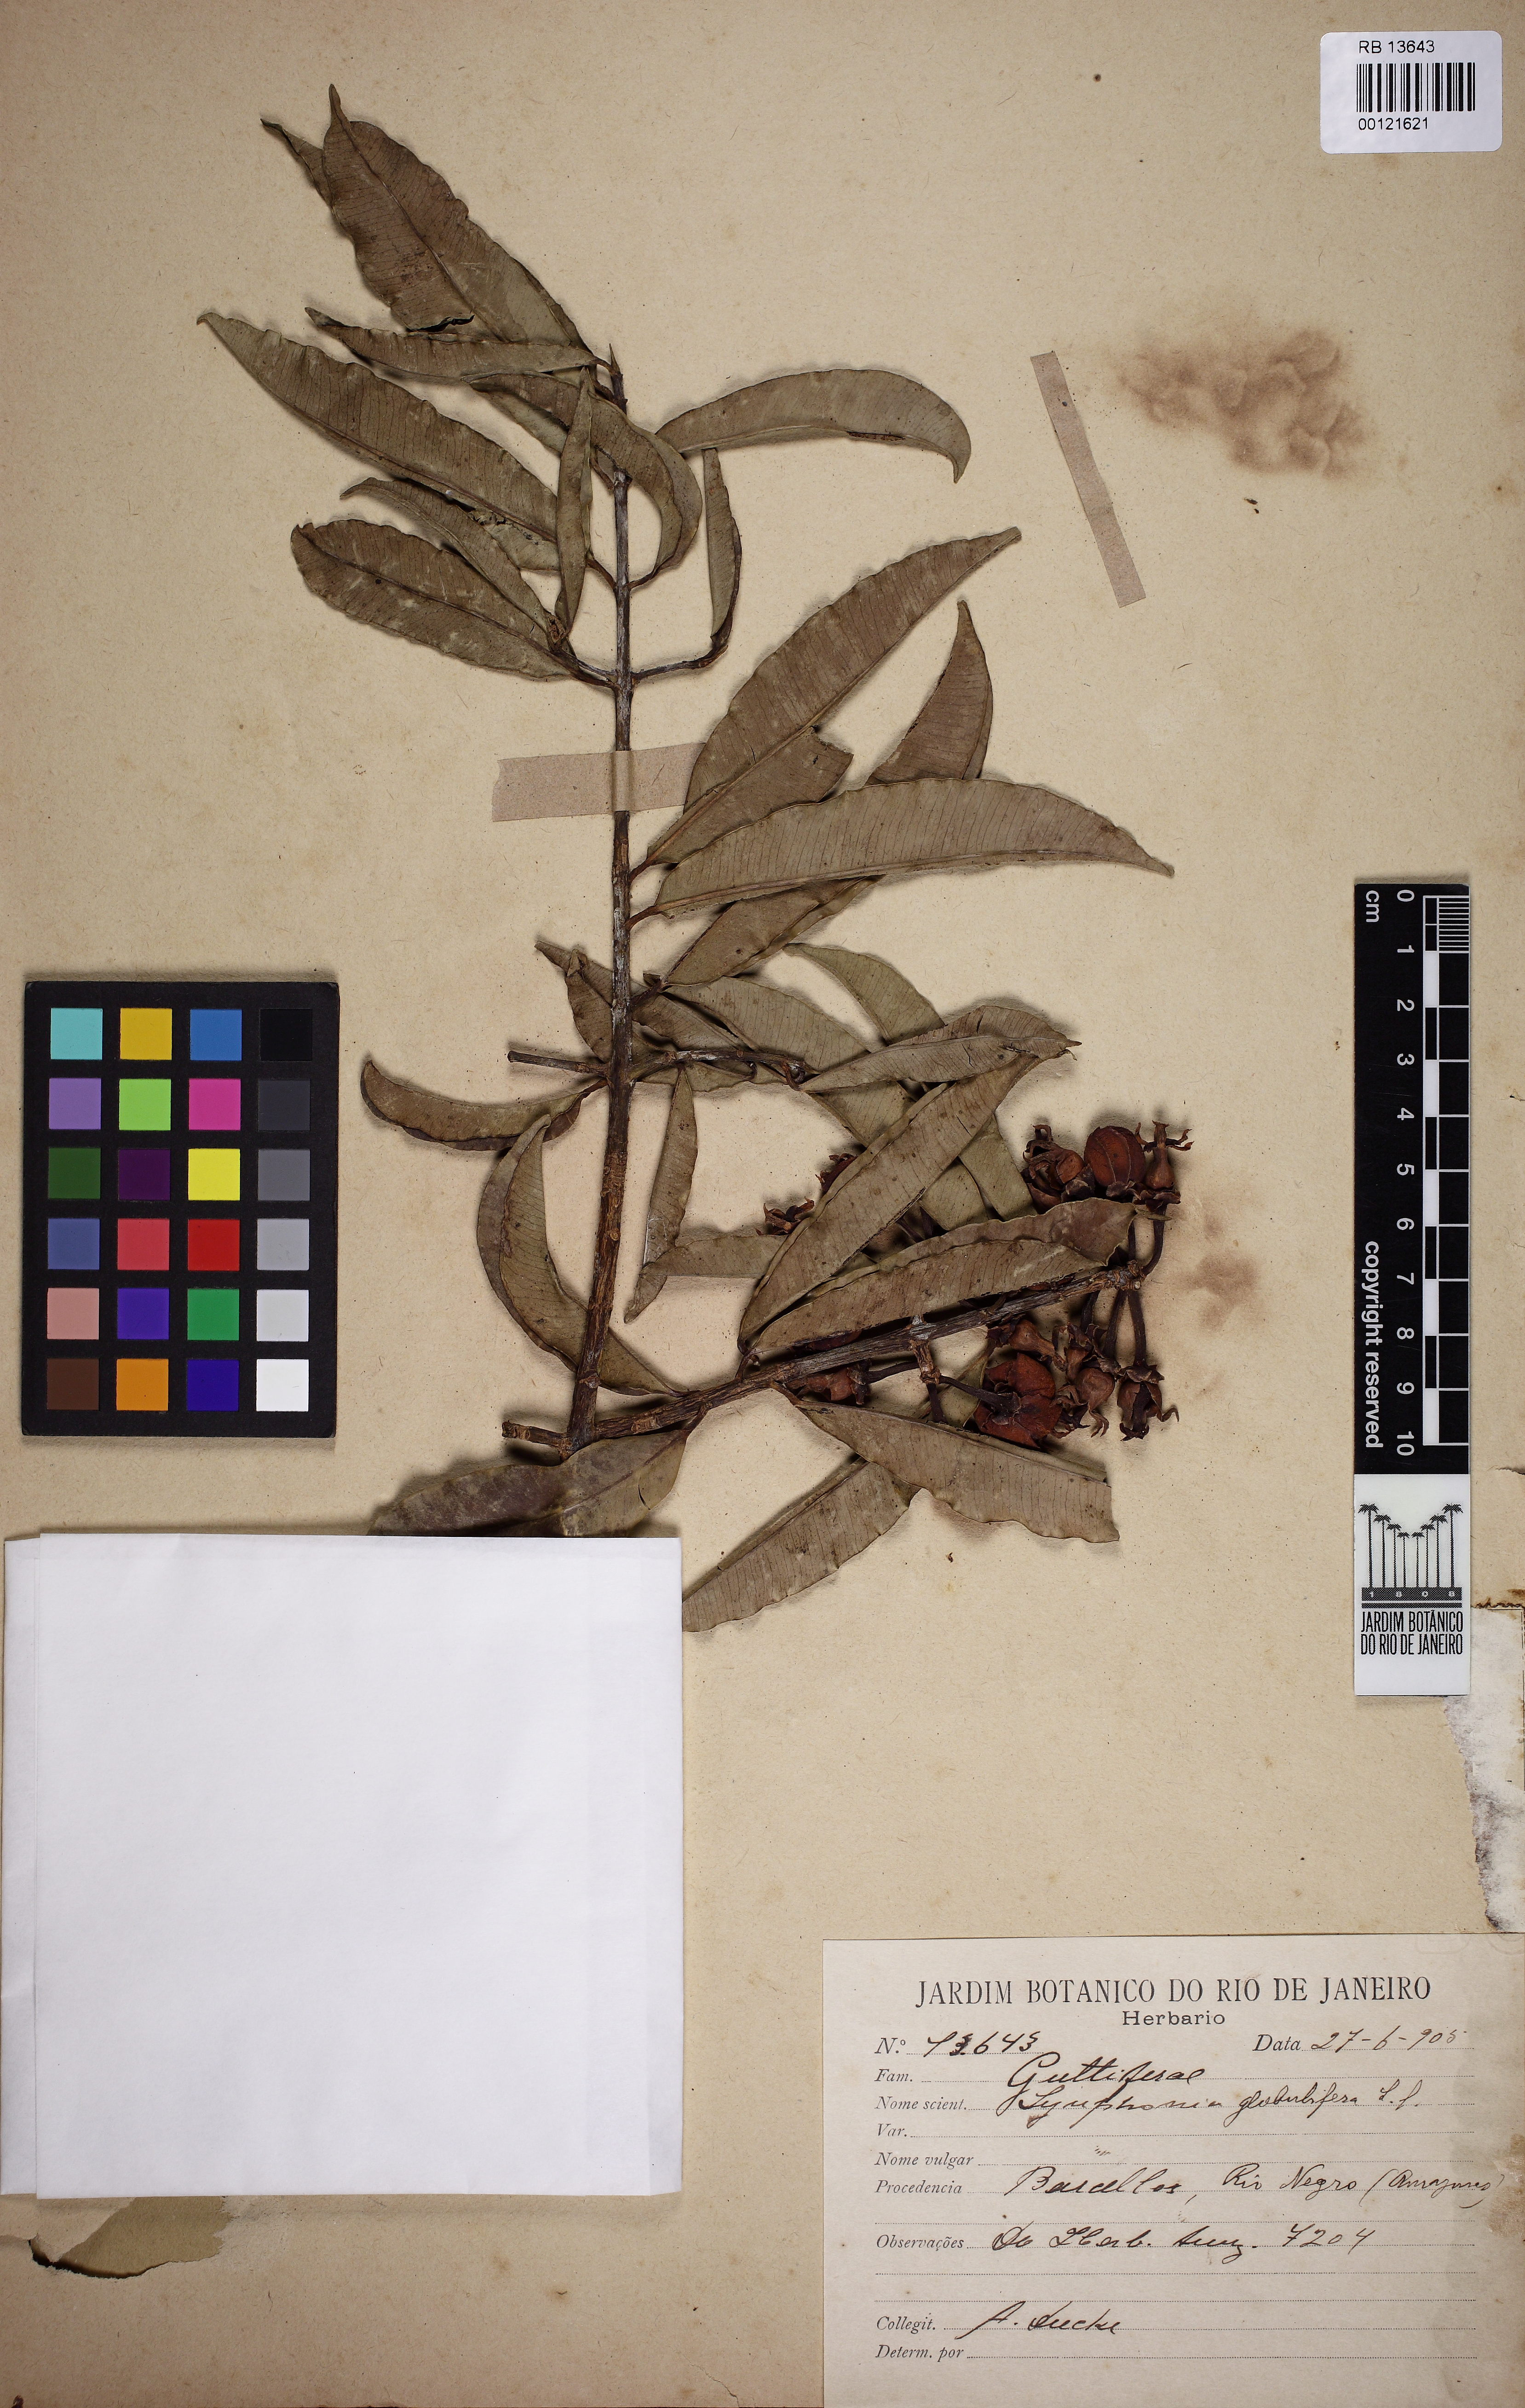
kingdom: Plantae
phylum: Tracheophyta
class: Magnoliopsida
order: Malpighiales
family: Clusiaceae
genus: Symphonia
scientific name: Symphonia globulifera
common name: Boarwood
